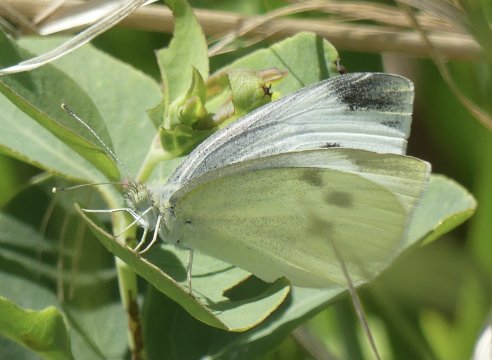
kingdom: Animalia
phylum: Arthropoda
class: Insecta
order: Lepidoptera
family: Pieridae
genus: Pieris
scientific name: Pieris rapae
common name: Cabbage White
